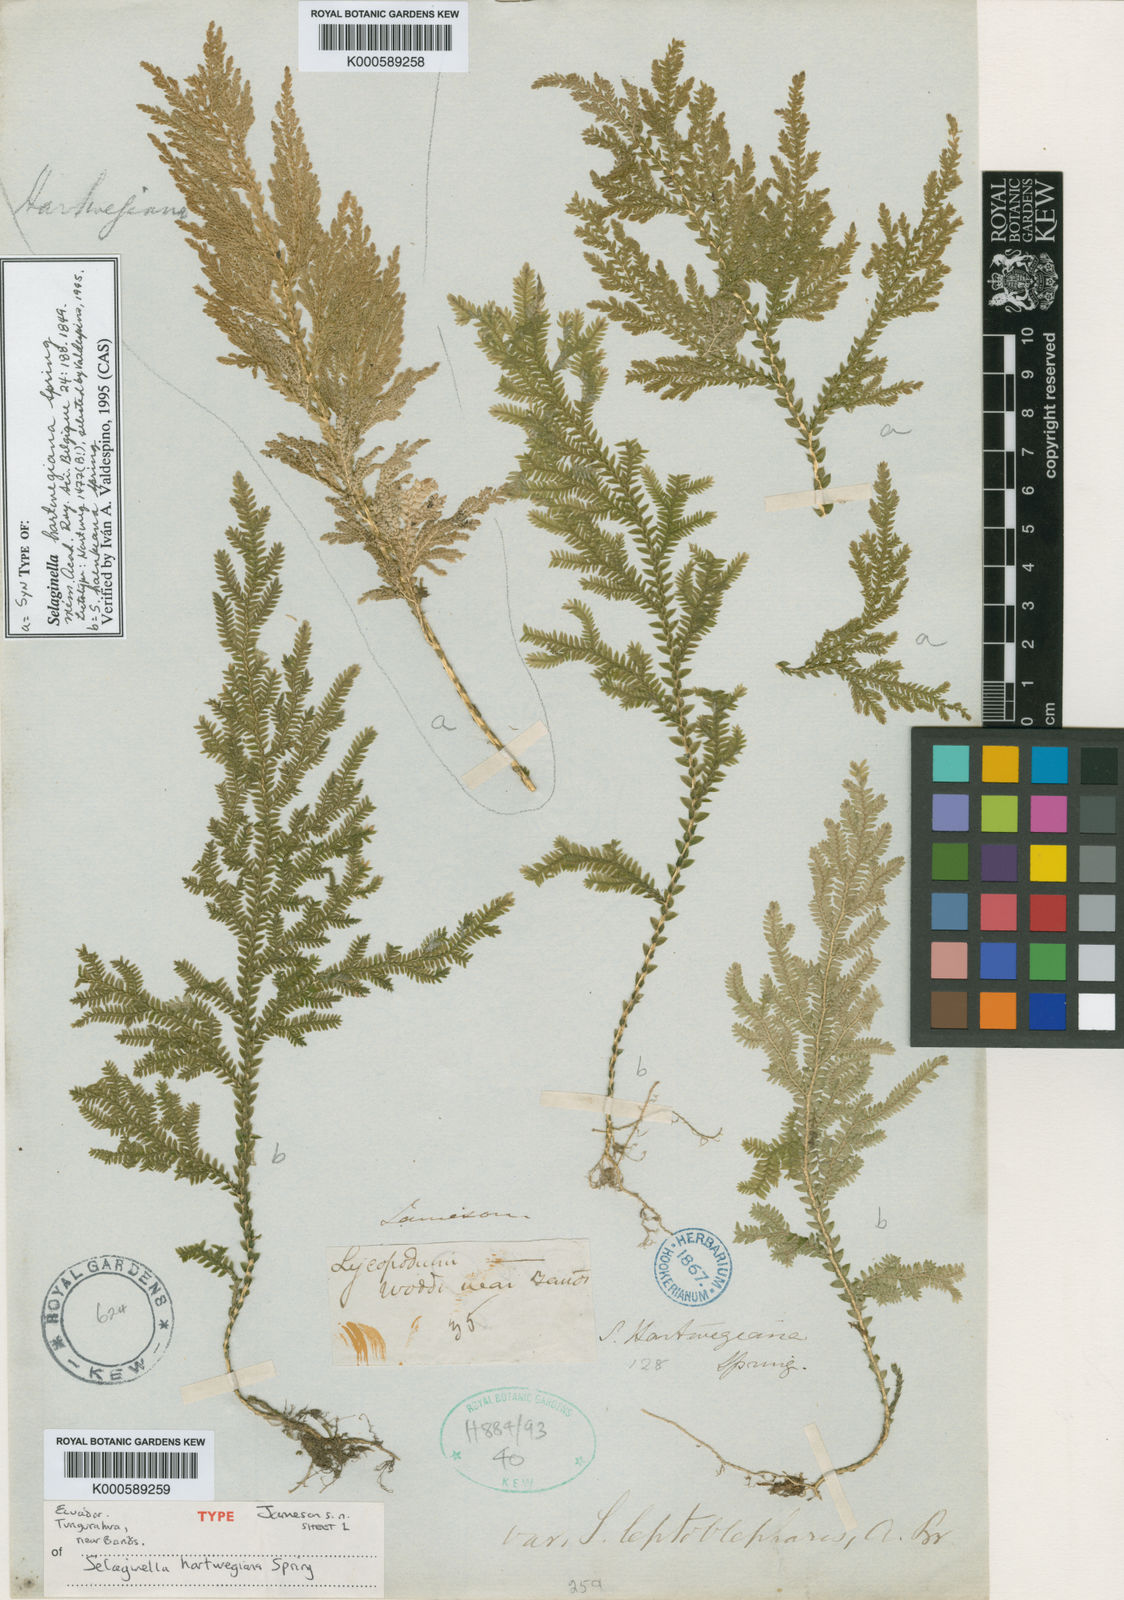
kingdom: Plantae
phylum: Tracheophyta
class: Lycopodiopsida
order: Selaginellales
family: Selaginellaceae
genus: Selaginella
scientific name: Selaginella hartwegiana
